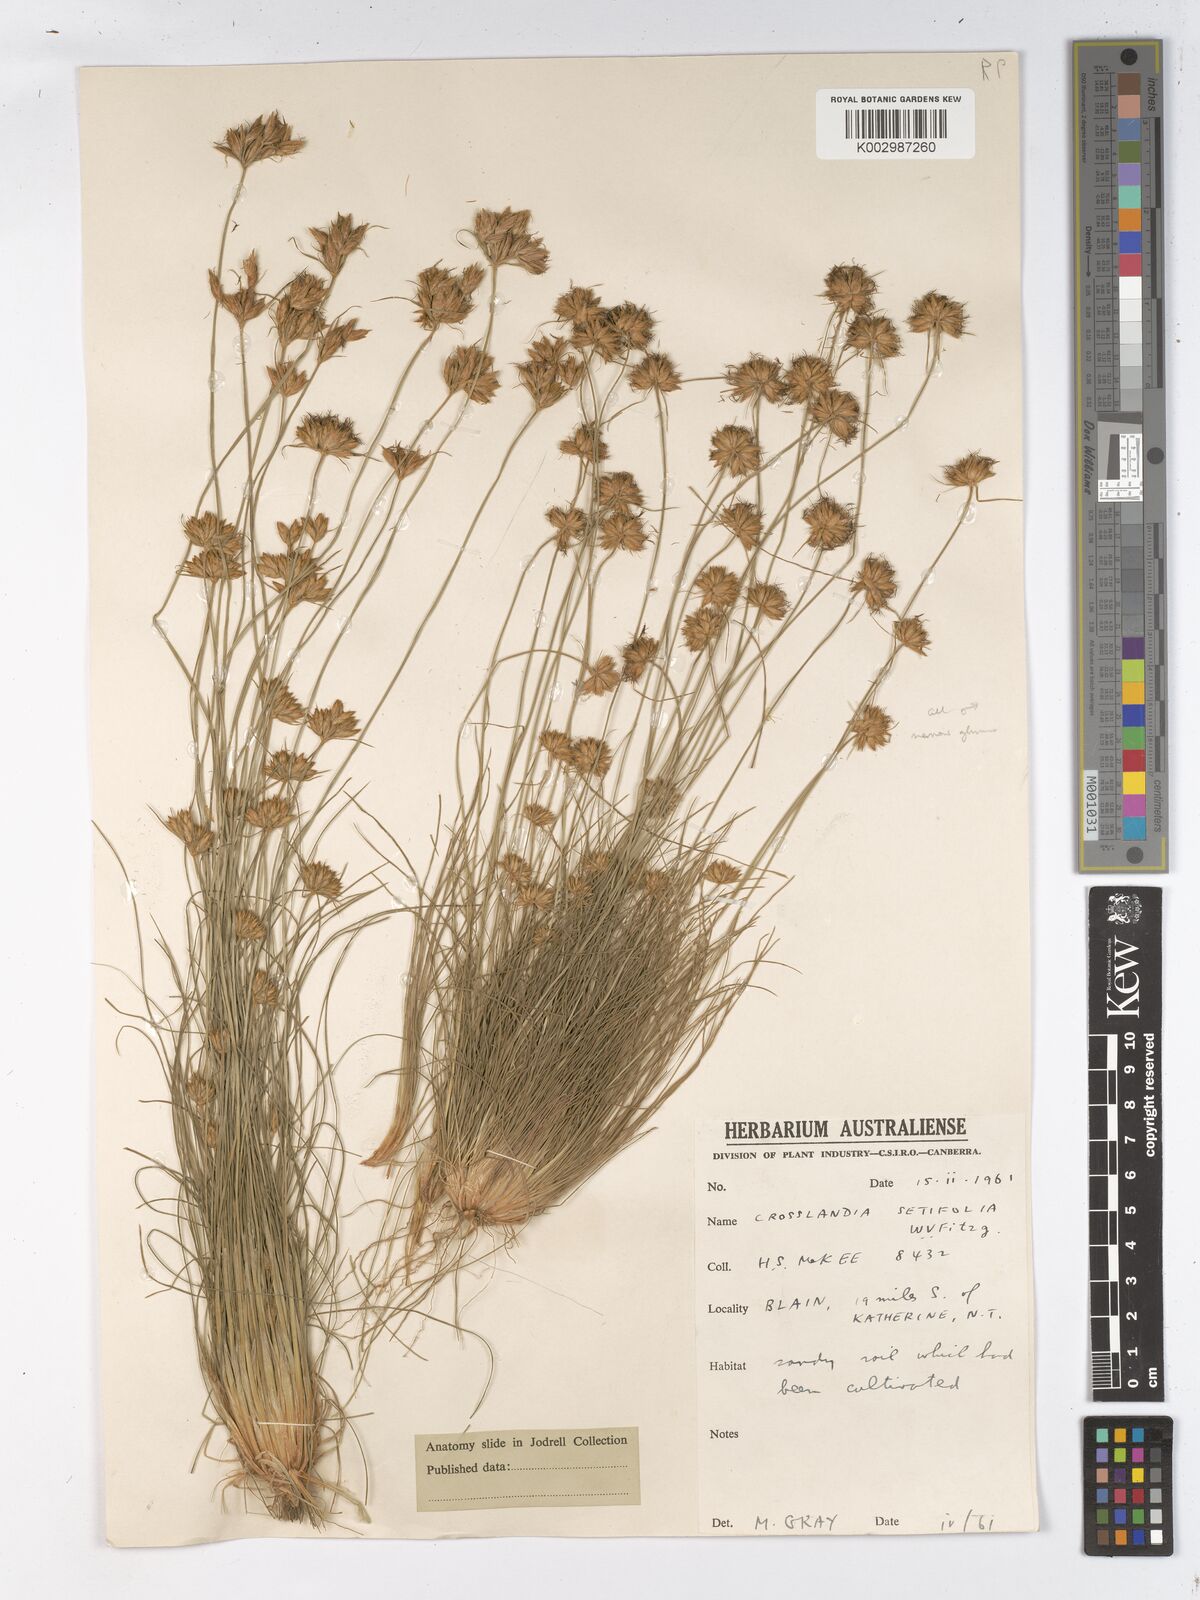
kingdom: Plantae
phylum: Tracheophyta
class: Liliopsida
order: Poales
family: Cyperaceae
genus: Fimbristylis
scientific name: Fimbristylis crosslandii
